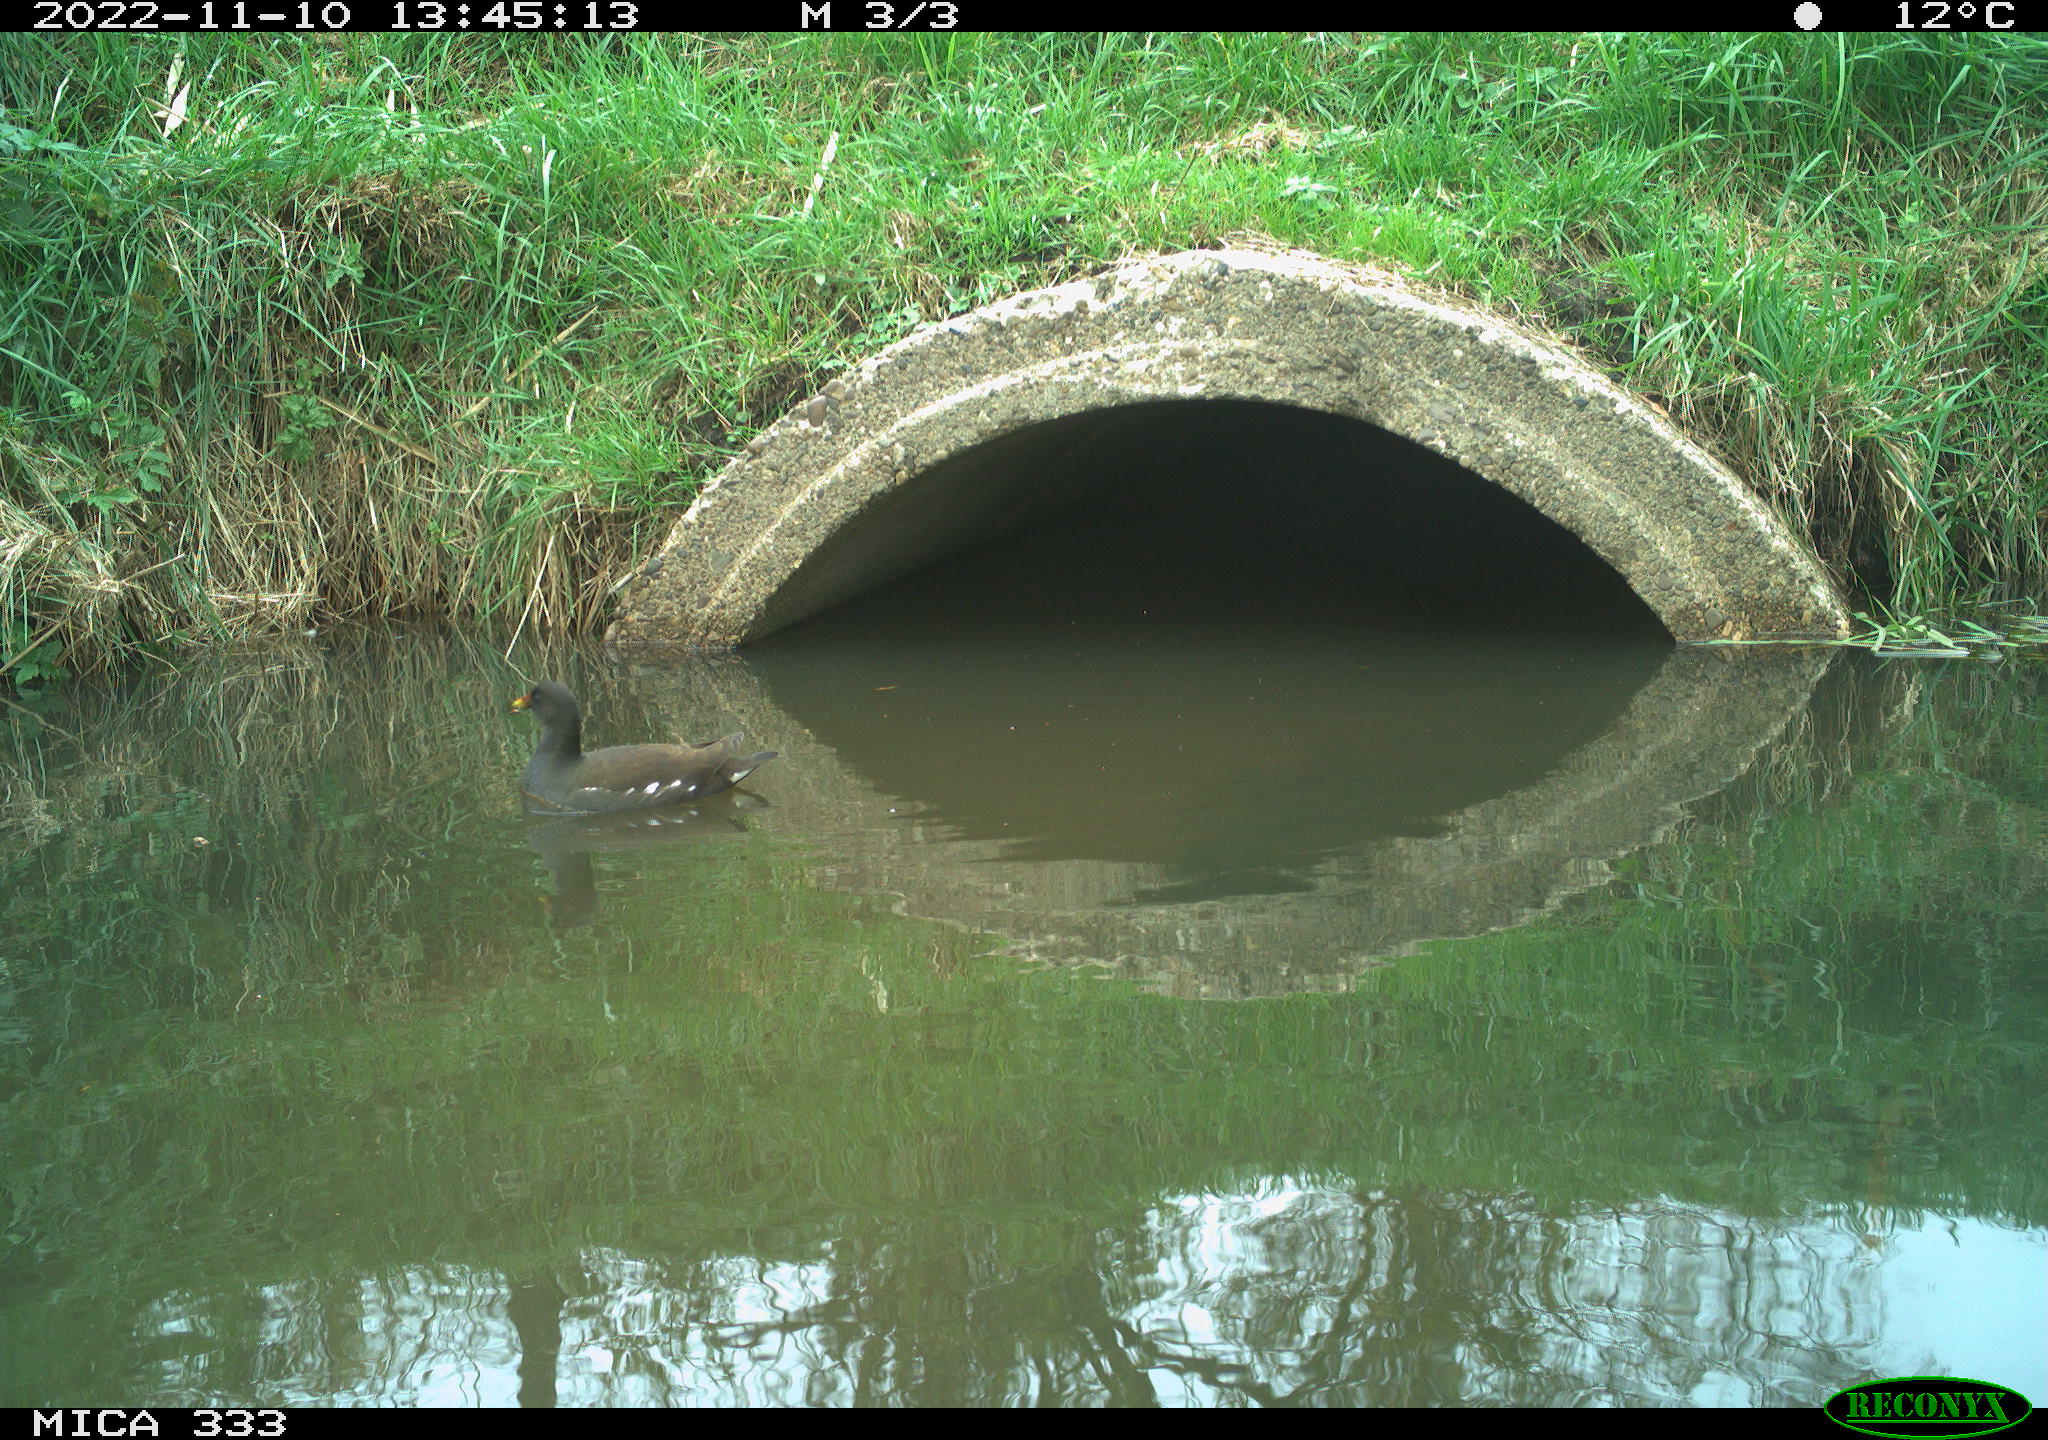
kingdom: Animalia
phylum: Chordata
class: Aves
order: Gruiformes
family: Rallidae
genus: Gallinula
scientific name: Gallinula chloropus
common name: Common moorhen
